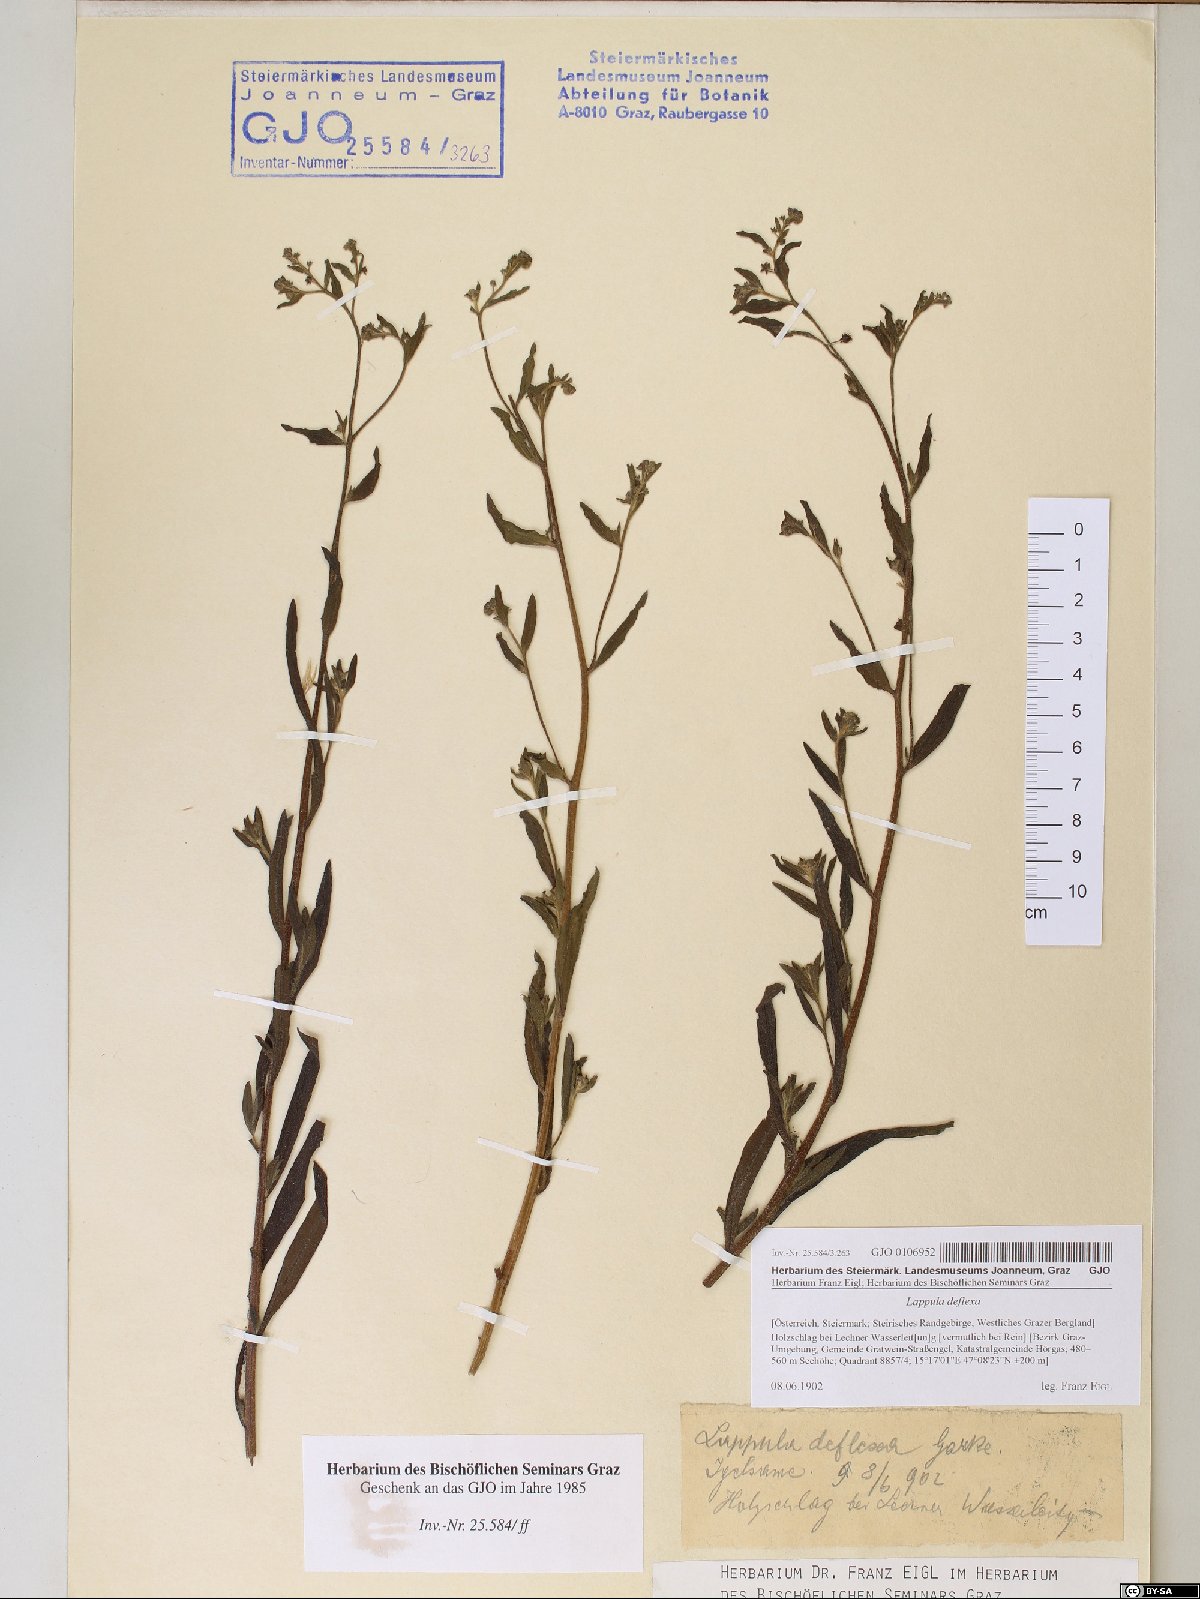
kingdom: Plantae
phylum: Tracheophyta
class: Magnoliopsida
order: Boraginales
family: Boraginaceae
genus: Hackelia
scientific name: Hackelia deflexa
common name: Nodding stickseed
